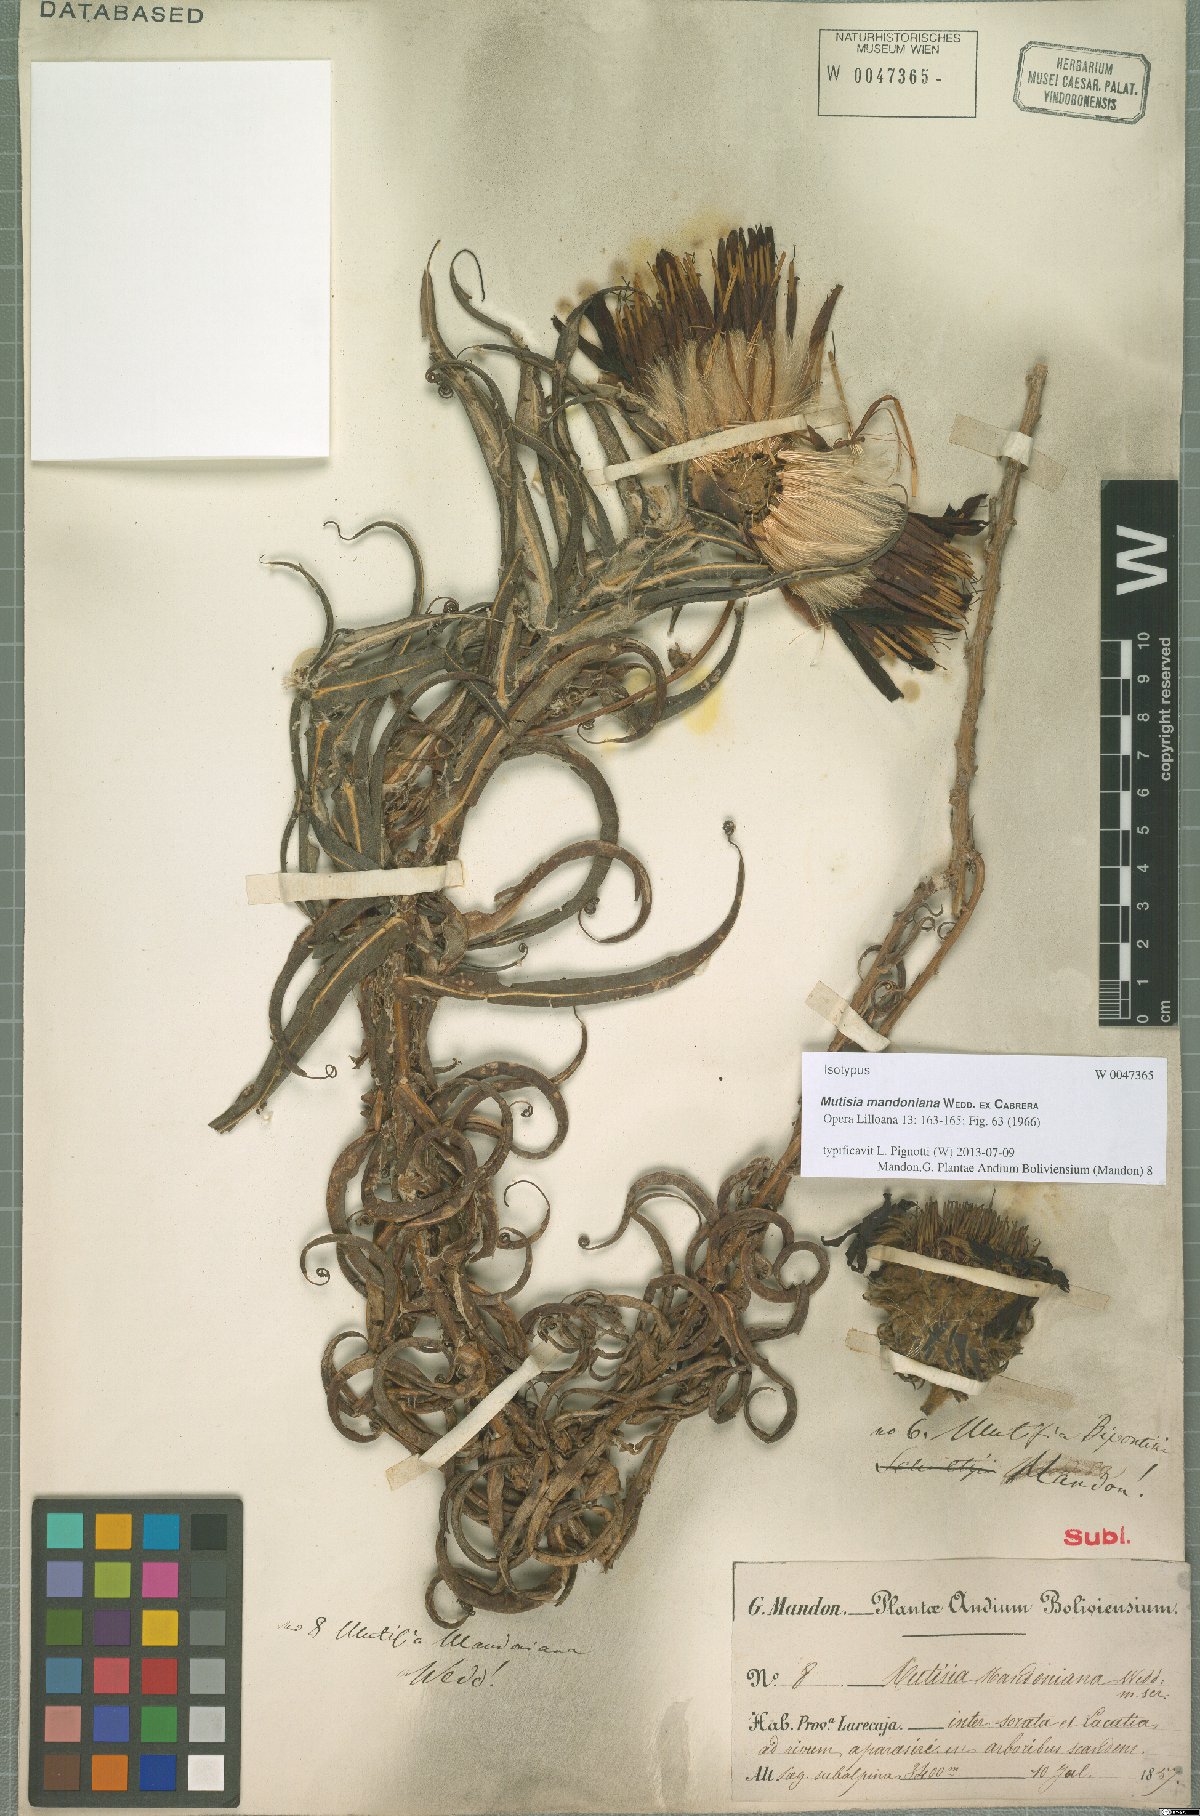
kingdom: Plantae
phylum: Tracheophyta
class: Magnoliopsida
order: Asterales
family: Asteraceae
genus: Mutisia
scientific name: Mutisia mandoniana
